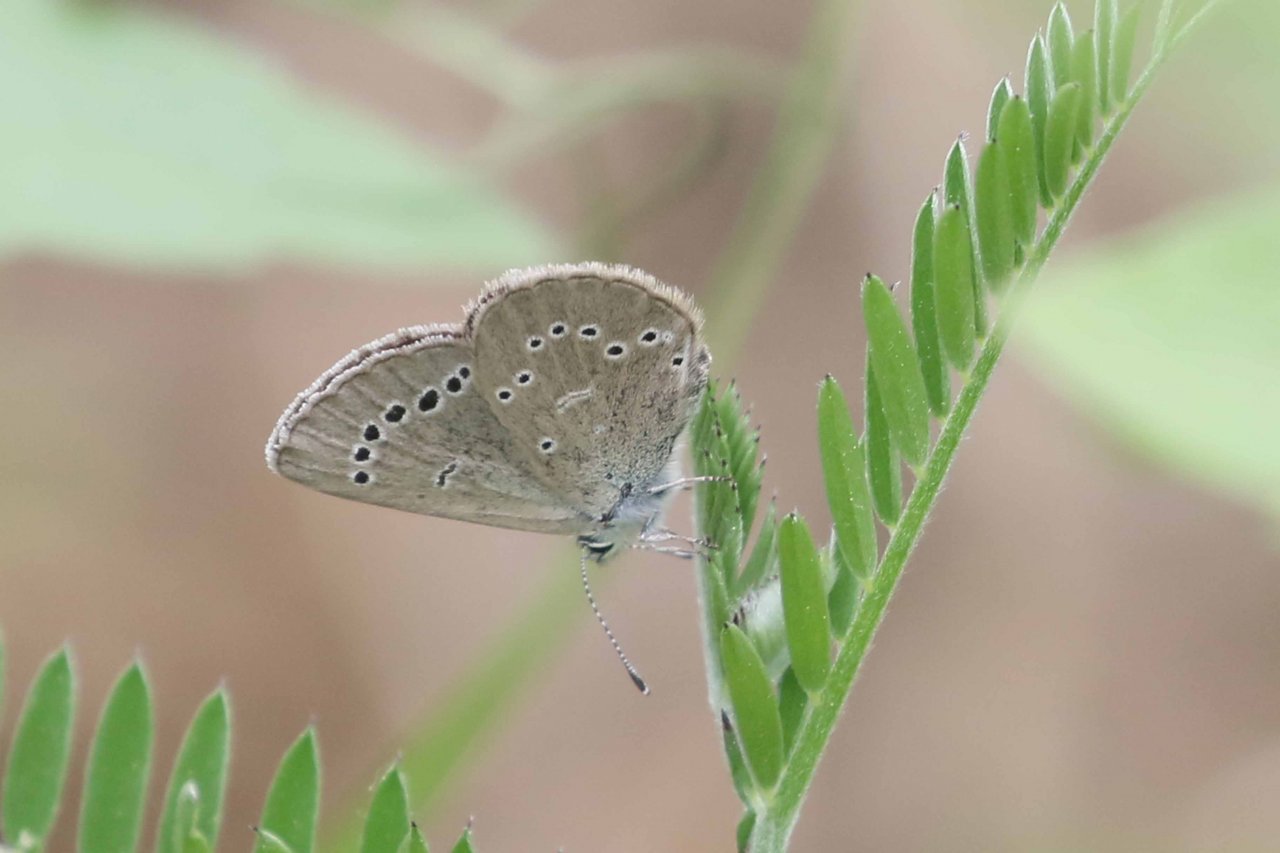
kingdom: Animalia
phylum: Arthropoda
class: Insecta
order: Lepidoptera
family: Lycaenidae
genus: Glaucopsyche
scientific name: Glaucopsyche lygdamus
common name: Silvery Blue
